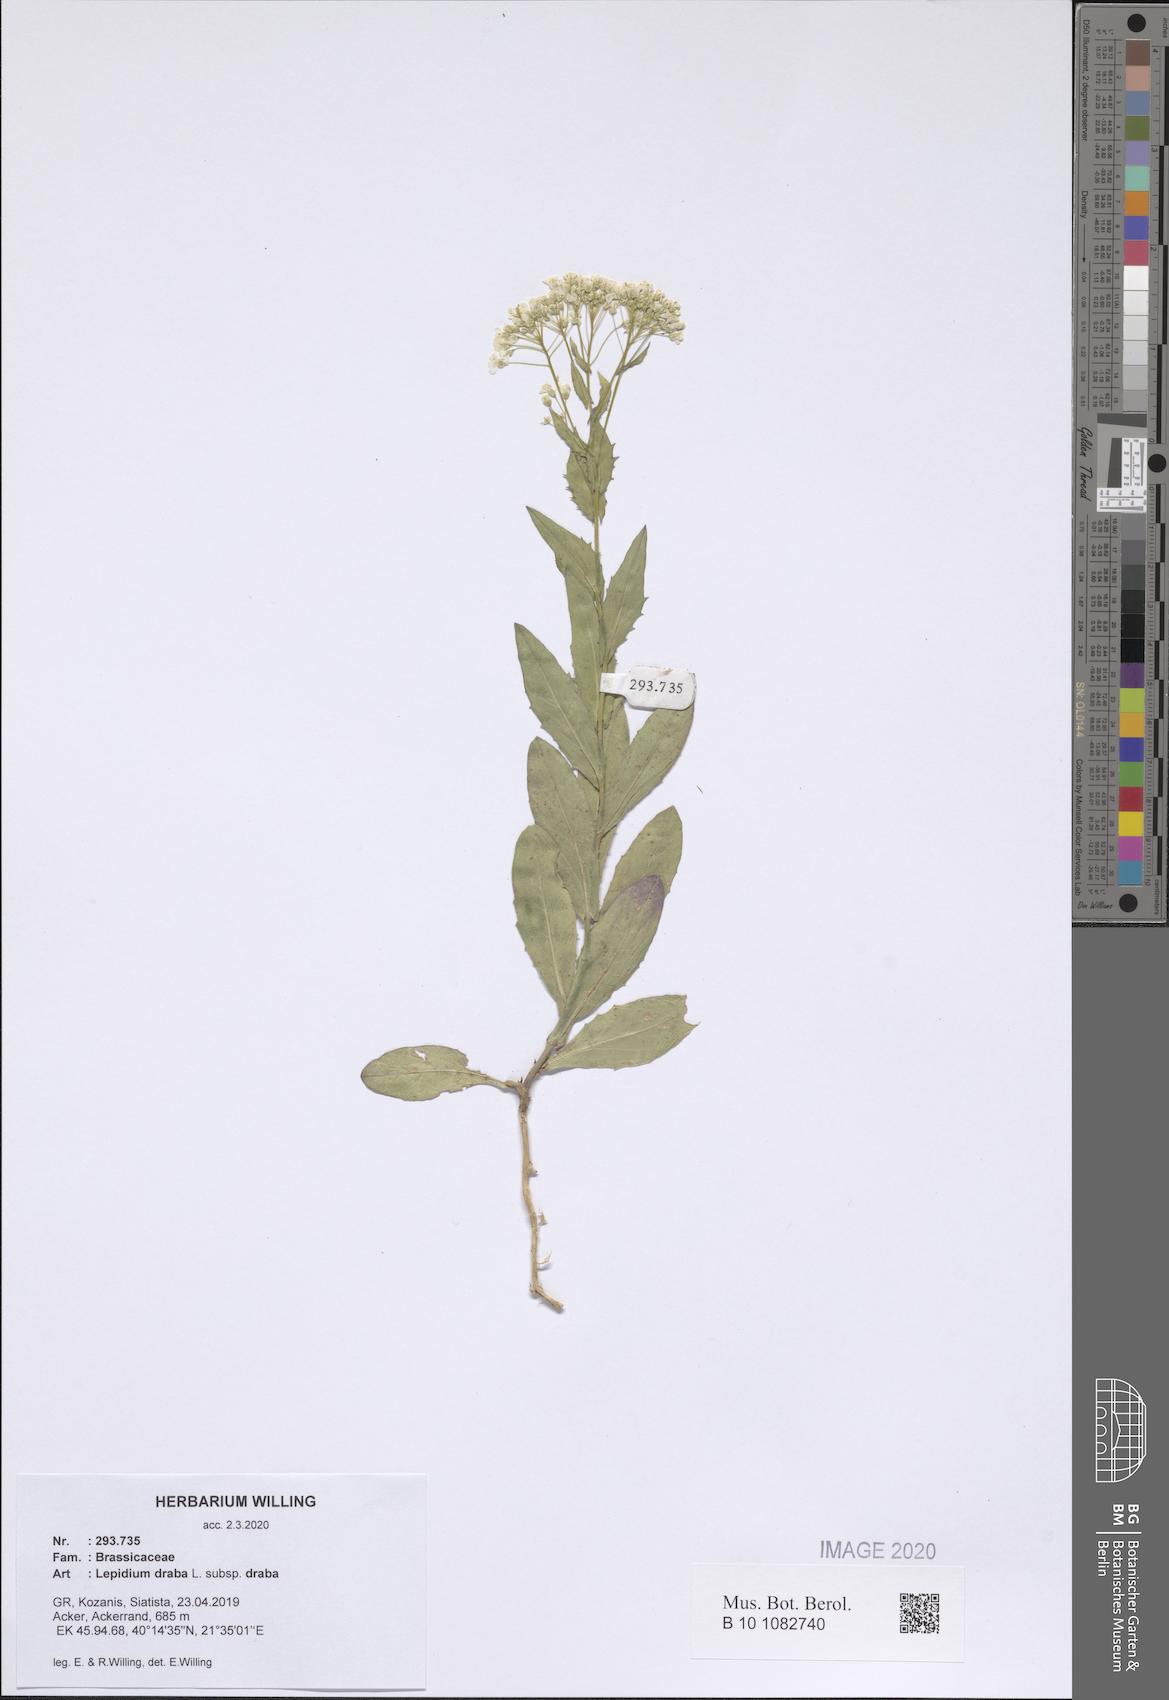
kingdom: Plantae
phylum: Tracheophyta
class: Magnoliopsida
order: Brassicales
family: Brassicaceae
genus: Lepidium
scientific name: Lepidium draba
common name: Hoary cress
